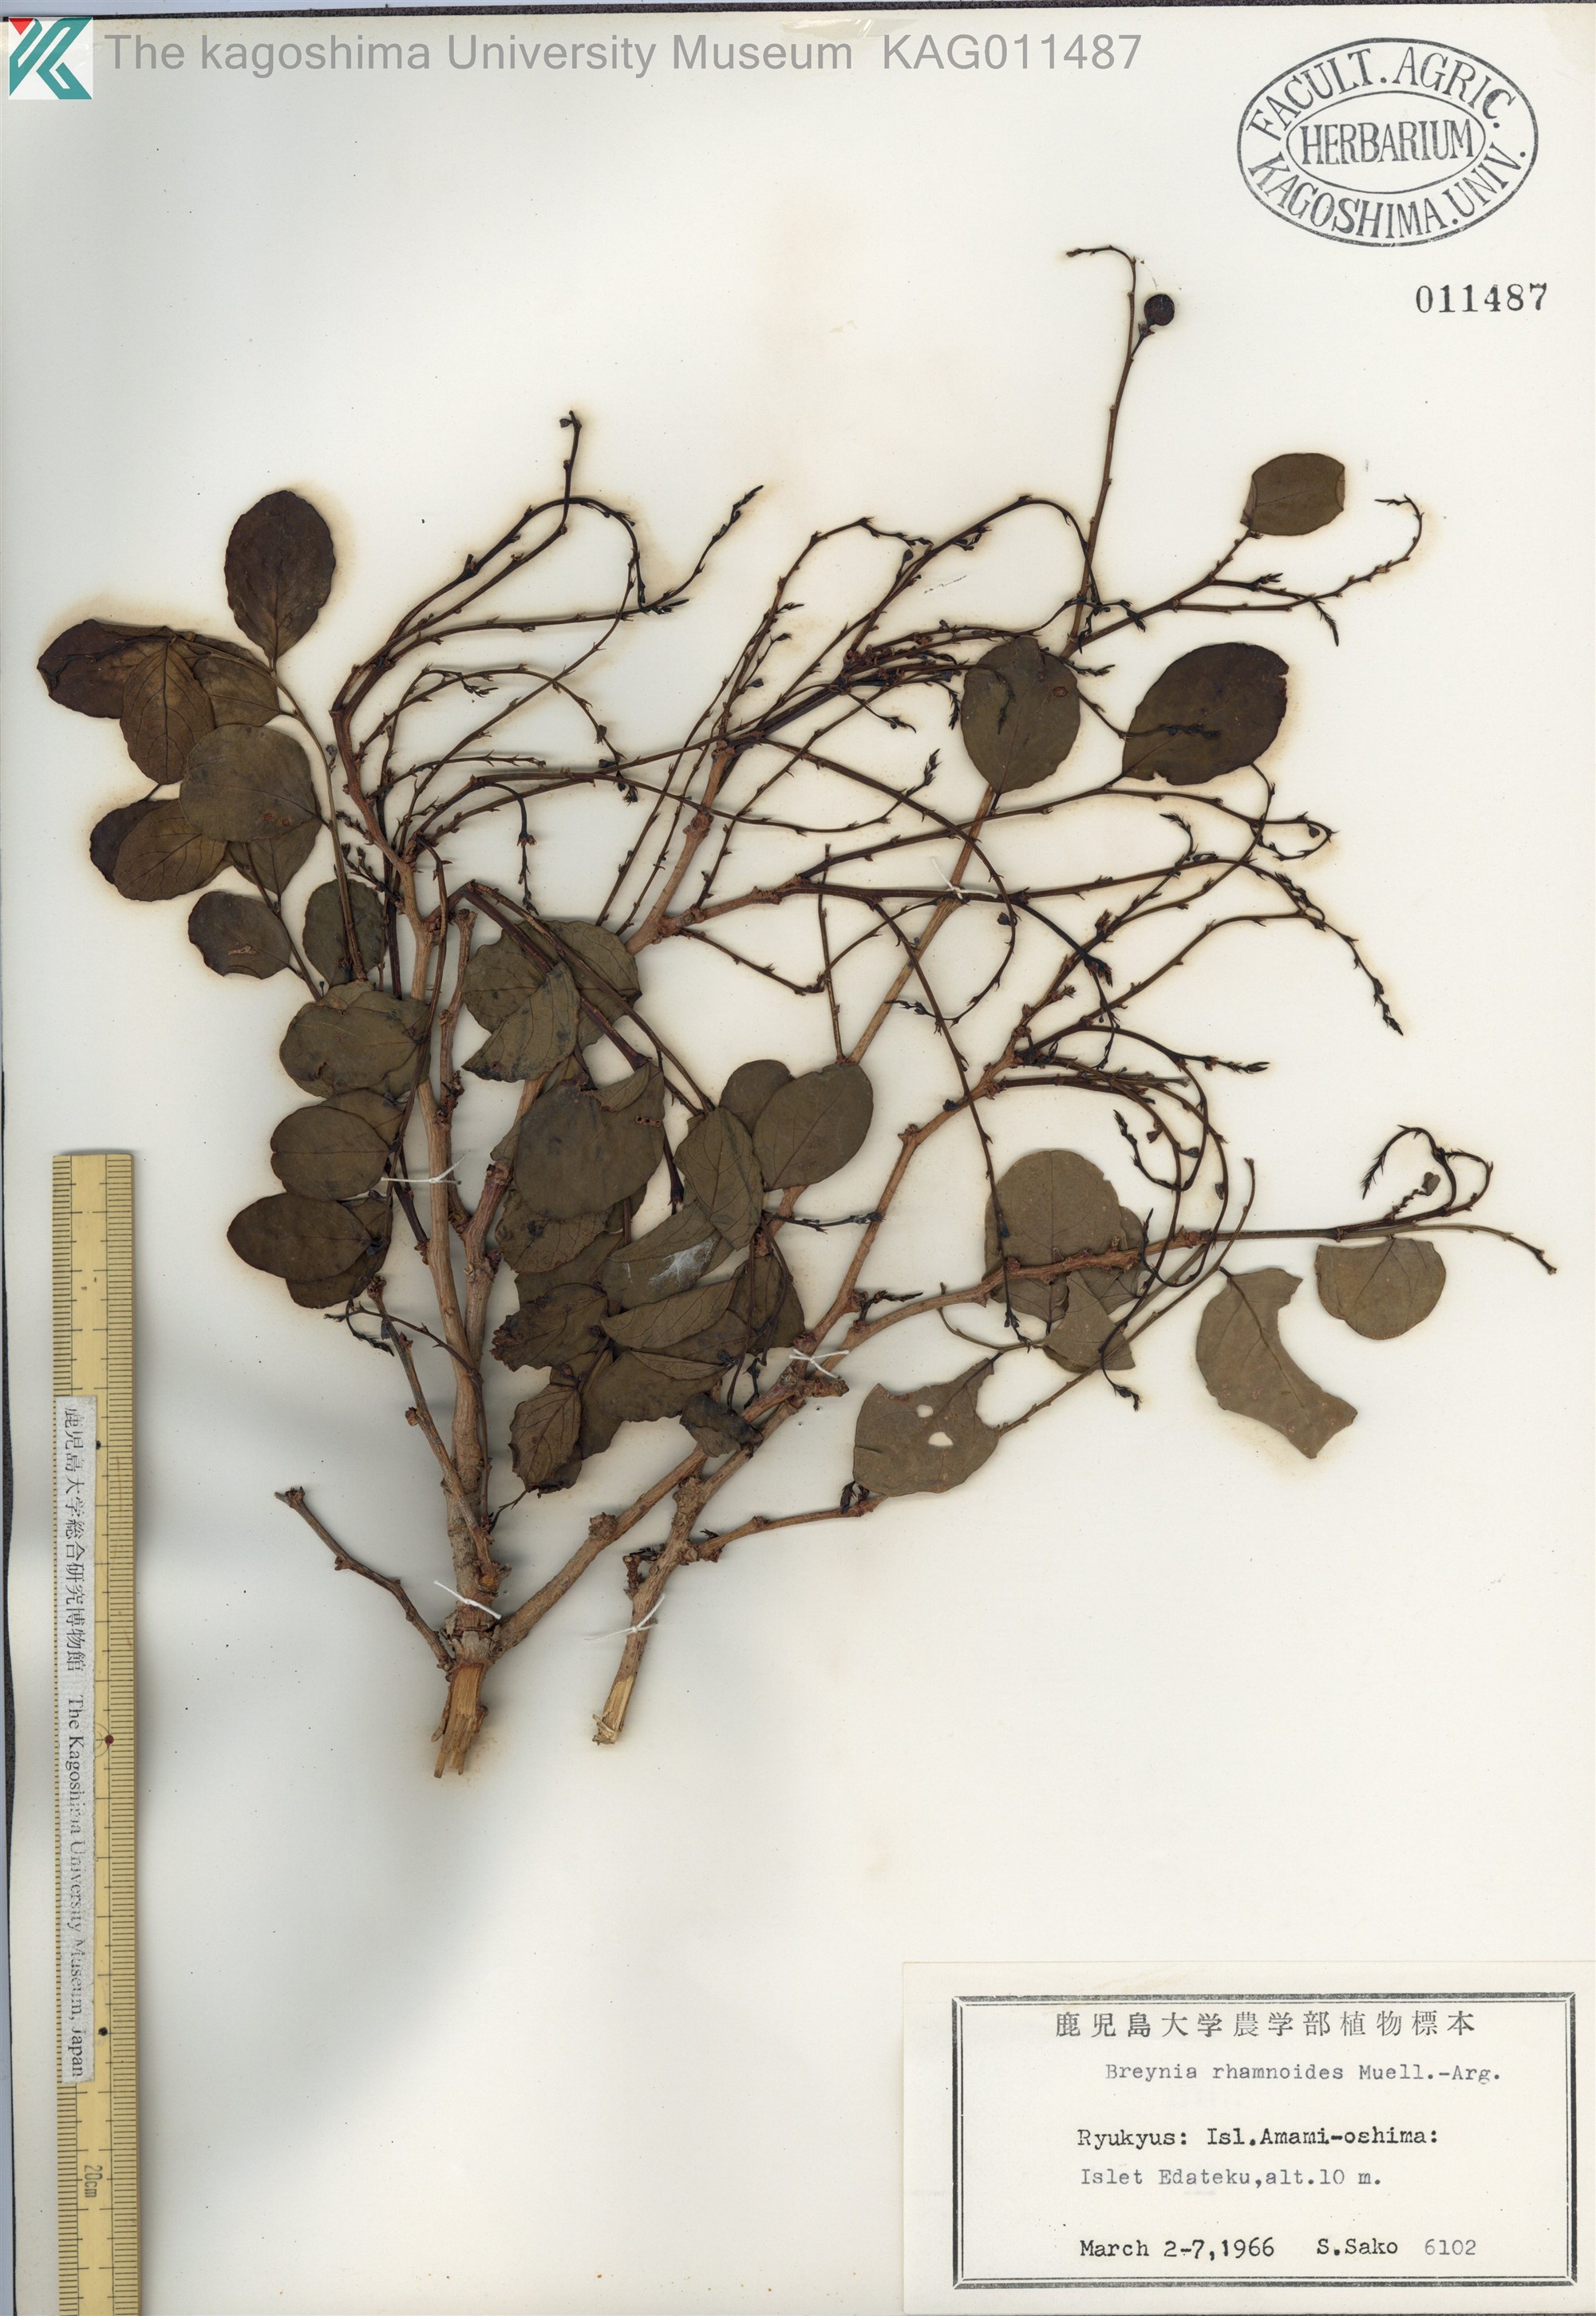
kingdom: Plantae
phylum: Tracheophyta
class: Magnoliopsida
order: Malpighiales
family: Phyllanthaceae
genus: Breynia
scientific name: Breynia vitis-idaea
